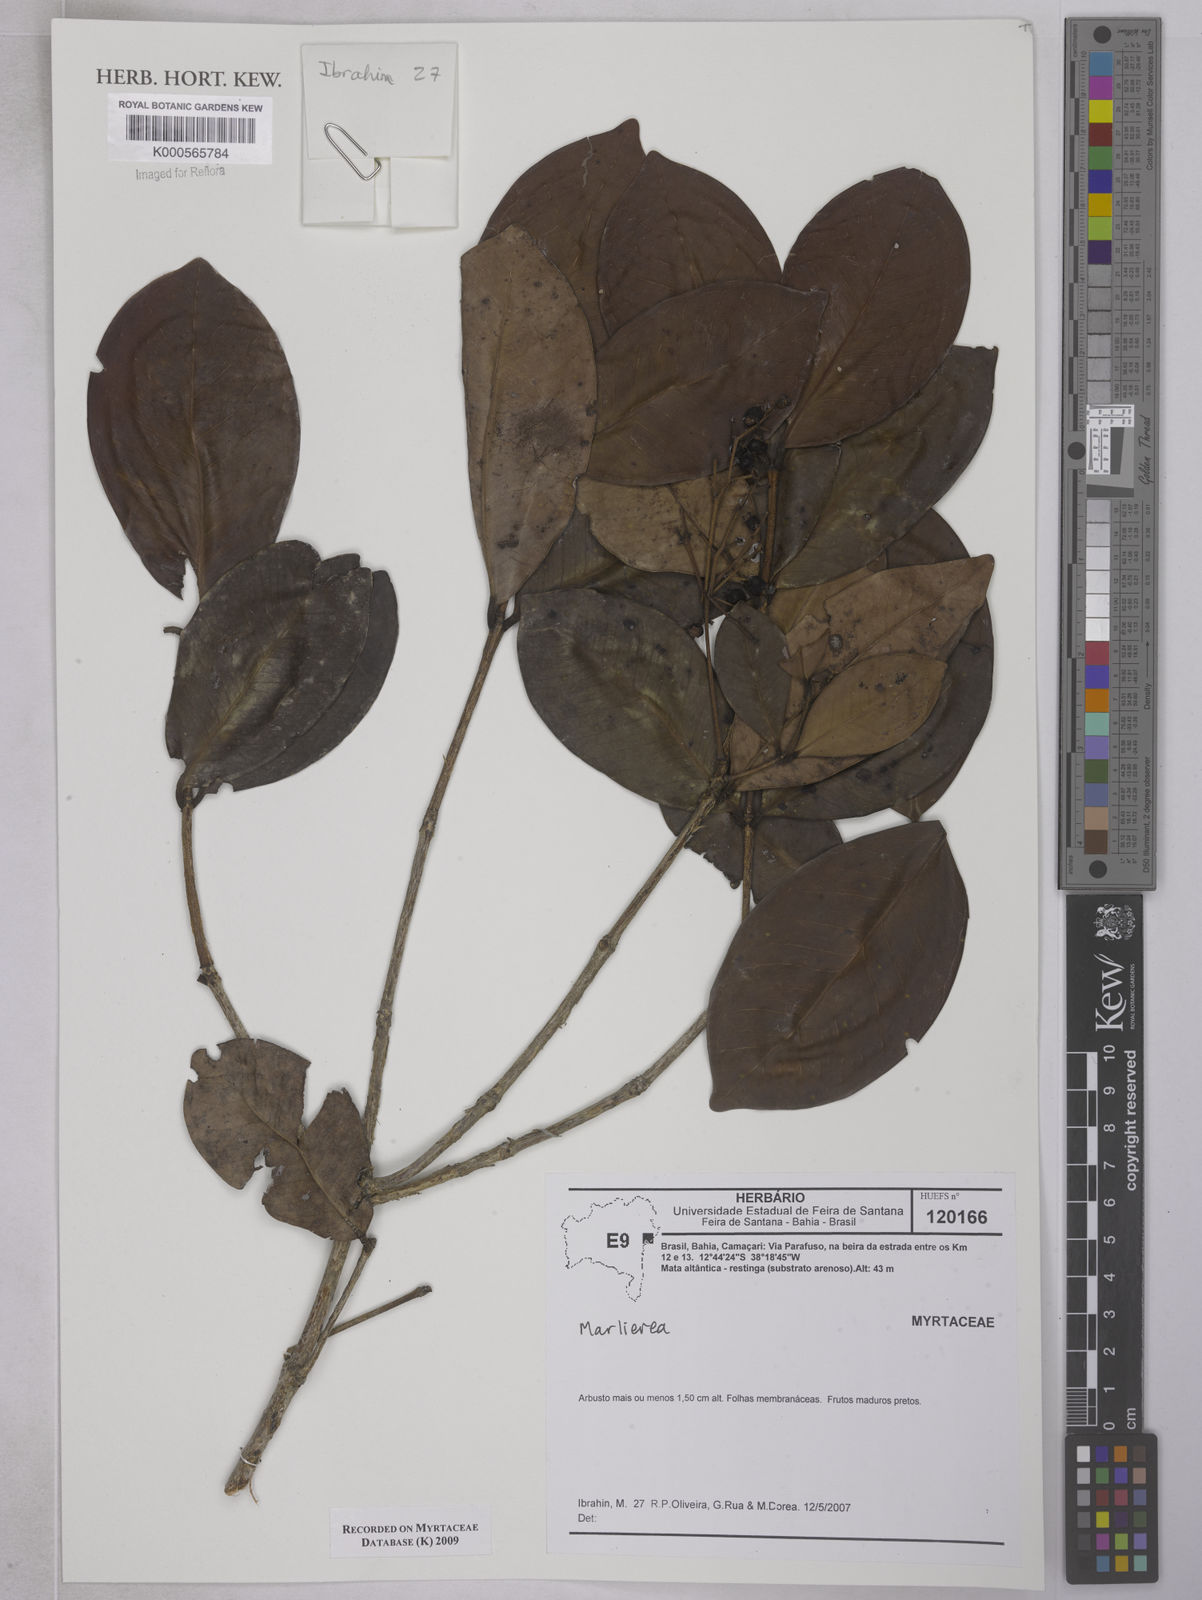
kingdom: Plantae
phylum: Tracheophyta
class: Magnoliopsida
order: Myrtales
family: Myrtaceae
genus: Marlierea
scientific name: Marlierea
